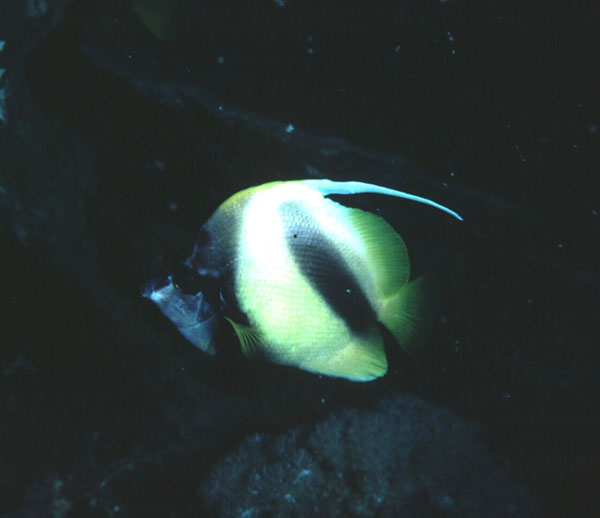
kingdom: Animalia
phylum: Chordata
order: Perciformes
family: Chaetodontidae
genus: Heniochus
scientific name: Heniochus intermedius
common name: Red sea bannerfish
